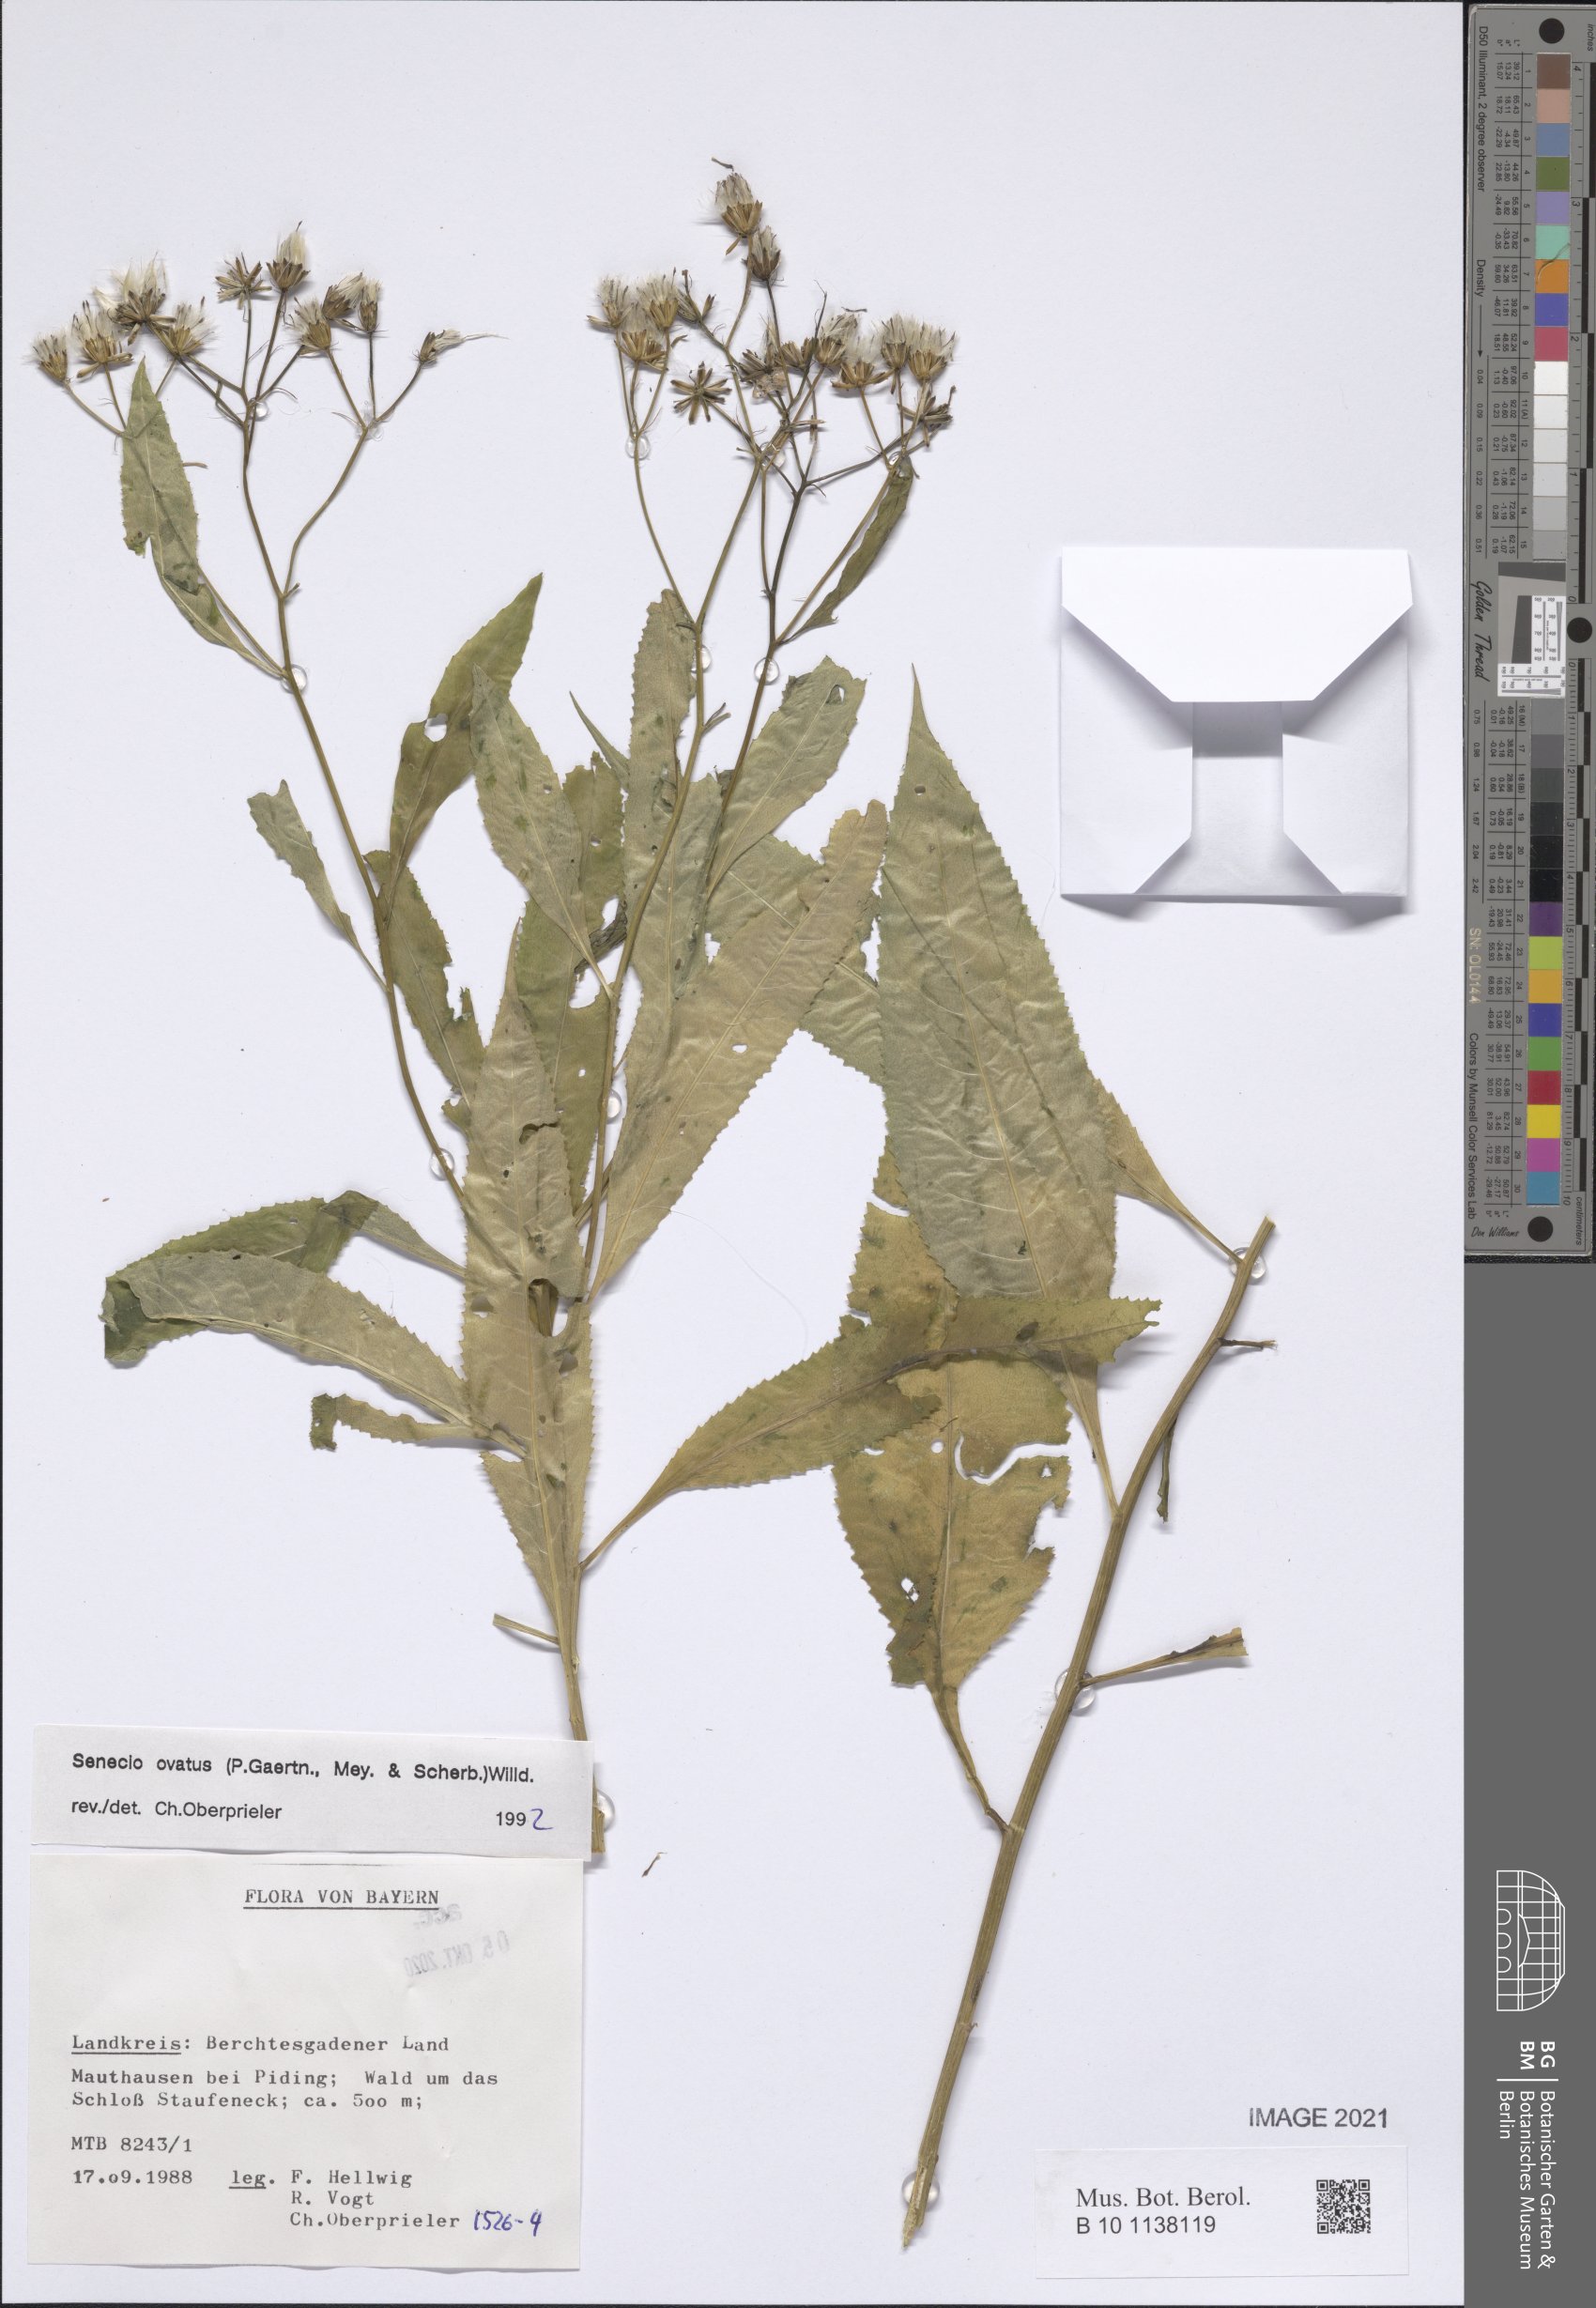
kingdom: Plantae
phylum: Tracheophyta
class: Magnoliopsida
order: Asterales
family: Asteraceae
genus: Senecio
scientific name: Senecio ovatus
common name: Wood ragwort
